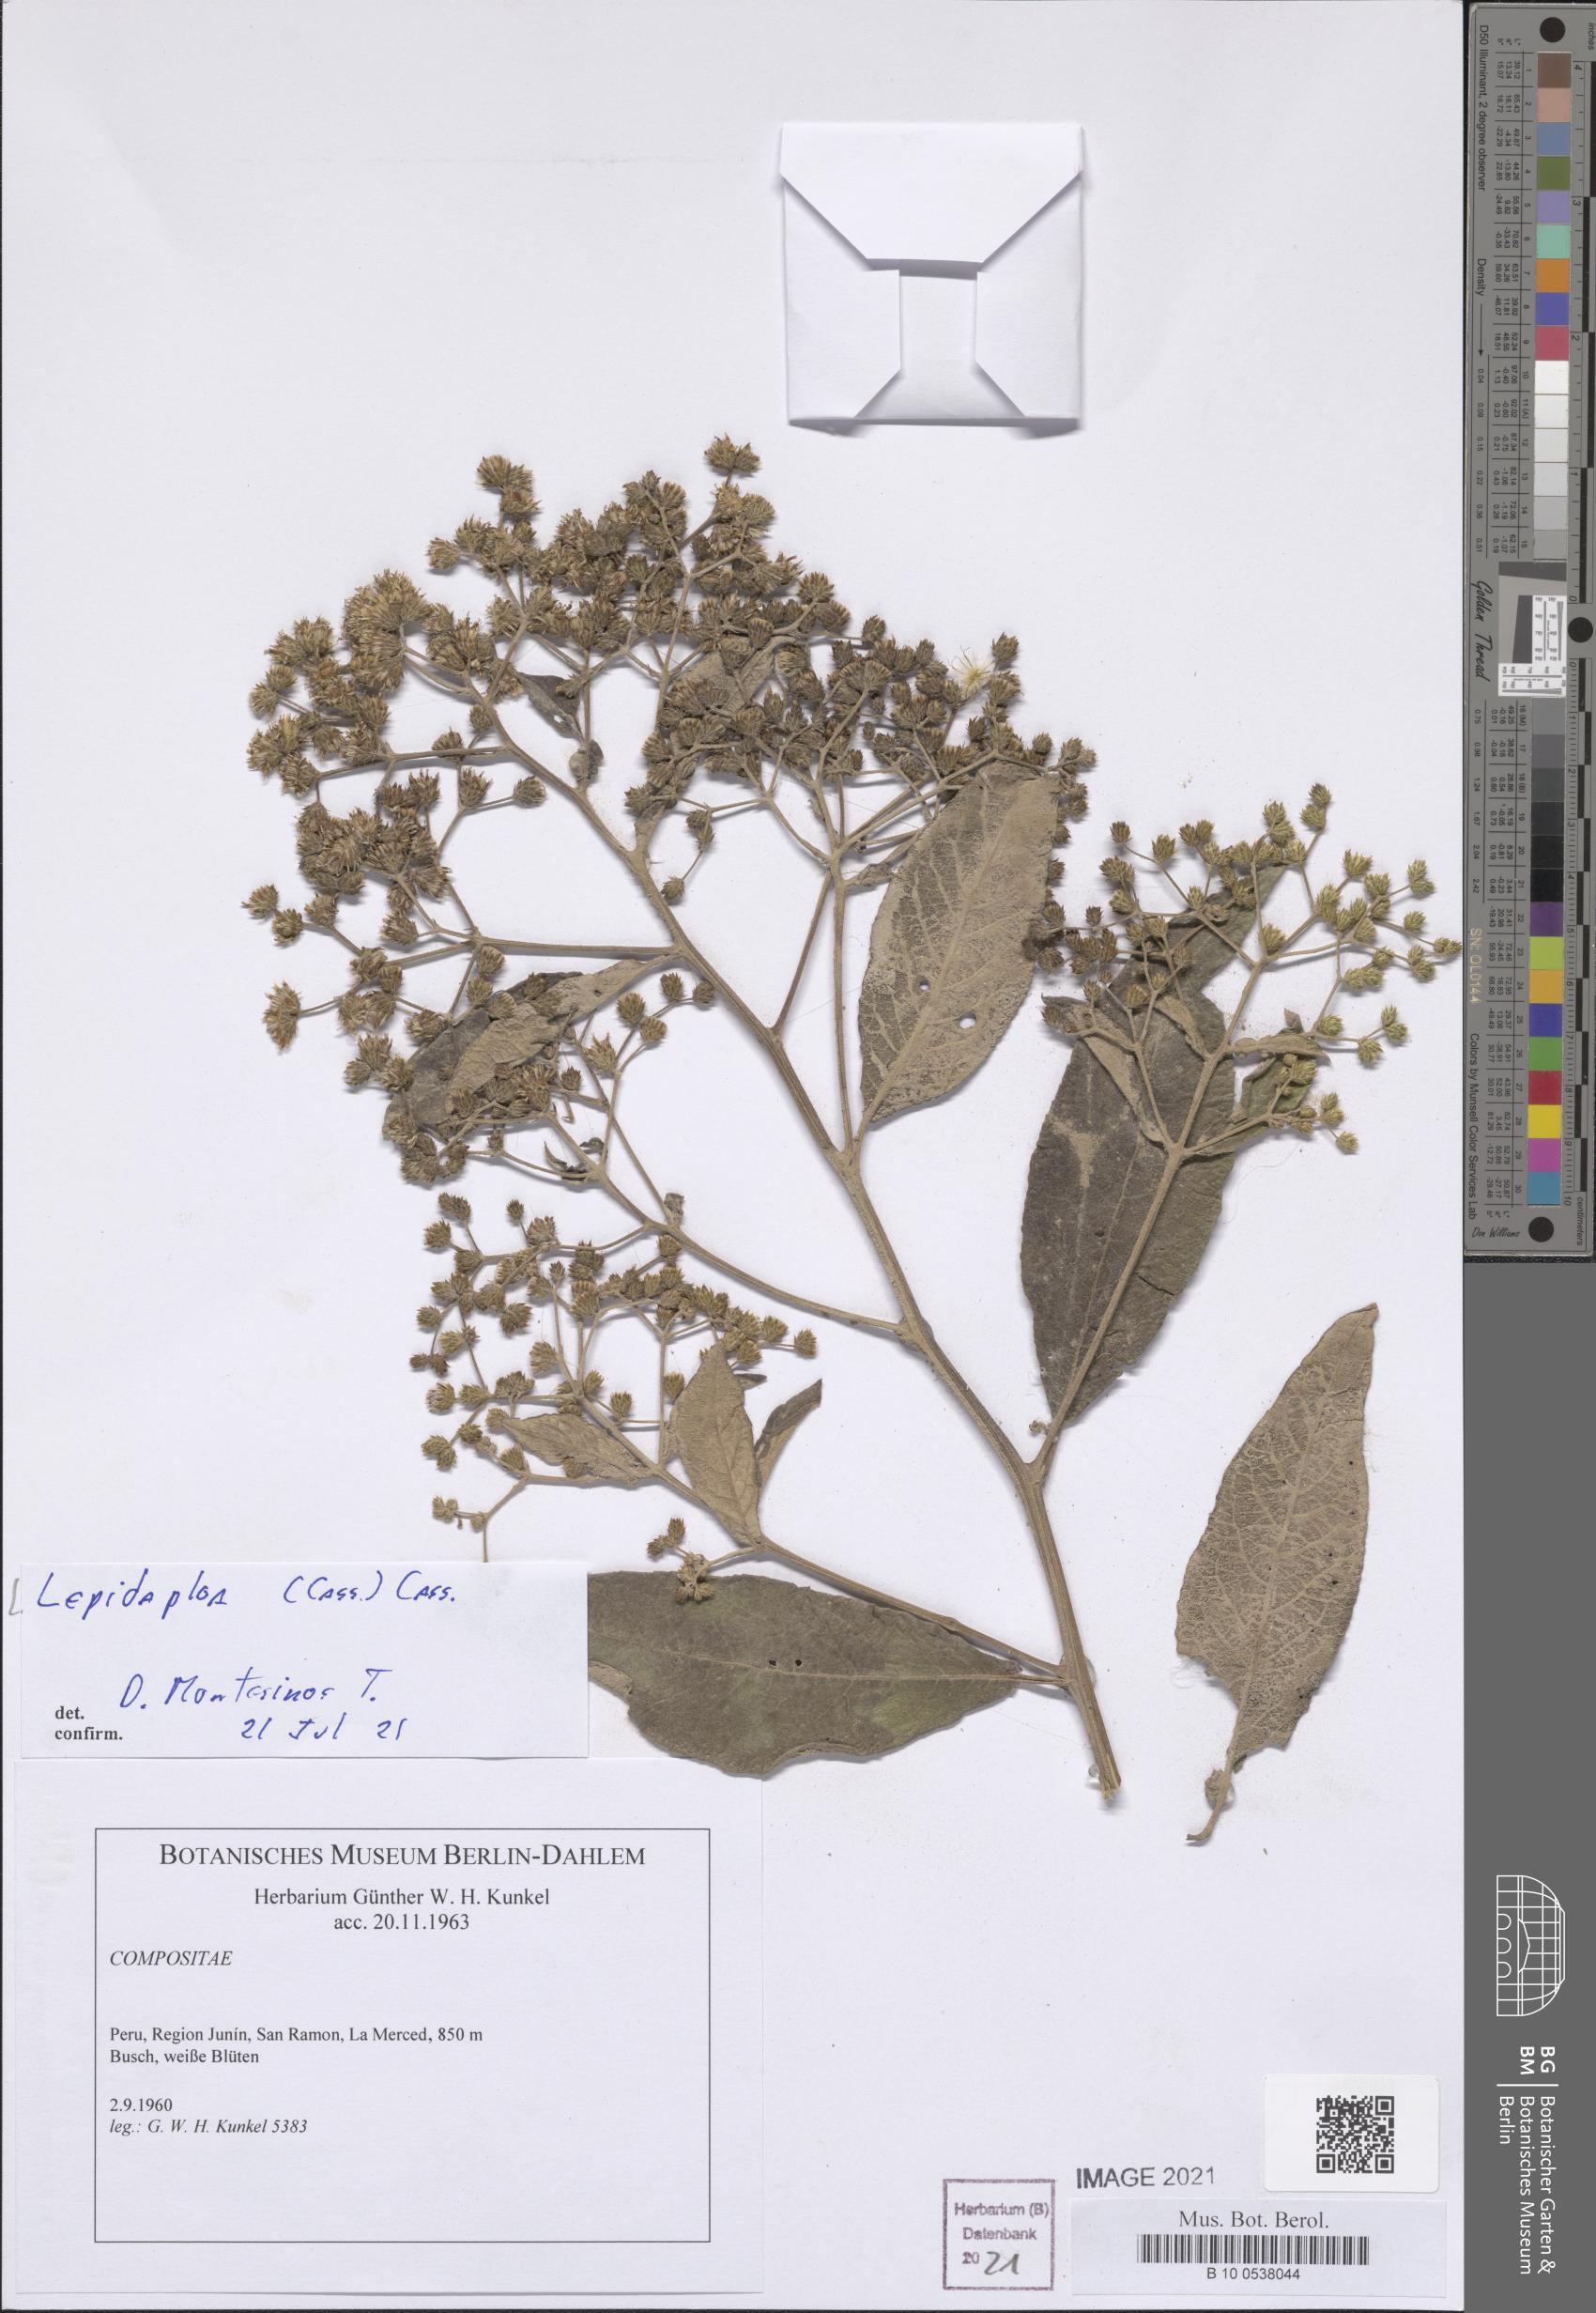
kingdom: Plantae
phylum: Tracheophyta
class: Magnoliopsida
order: Asterales
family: Asteraceae
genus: Lepidaploa
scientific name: Lepidaploa
